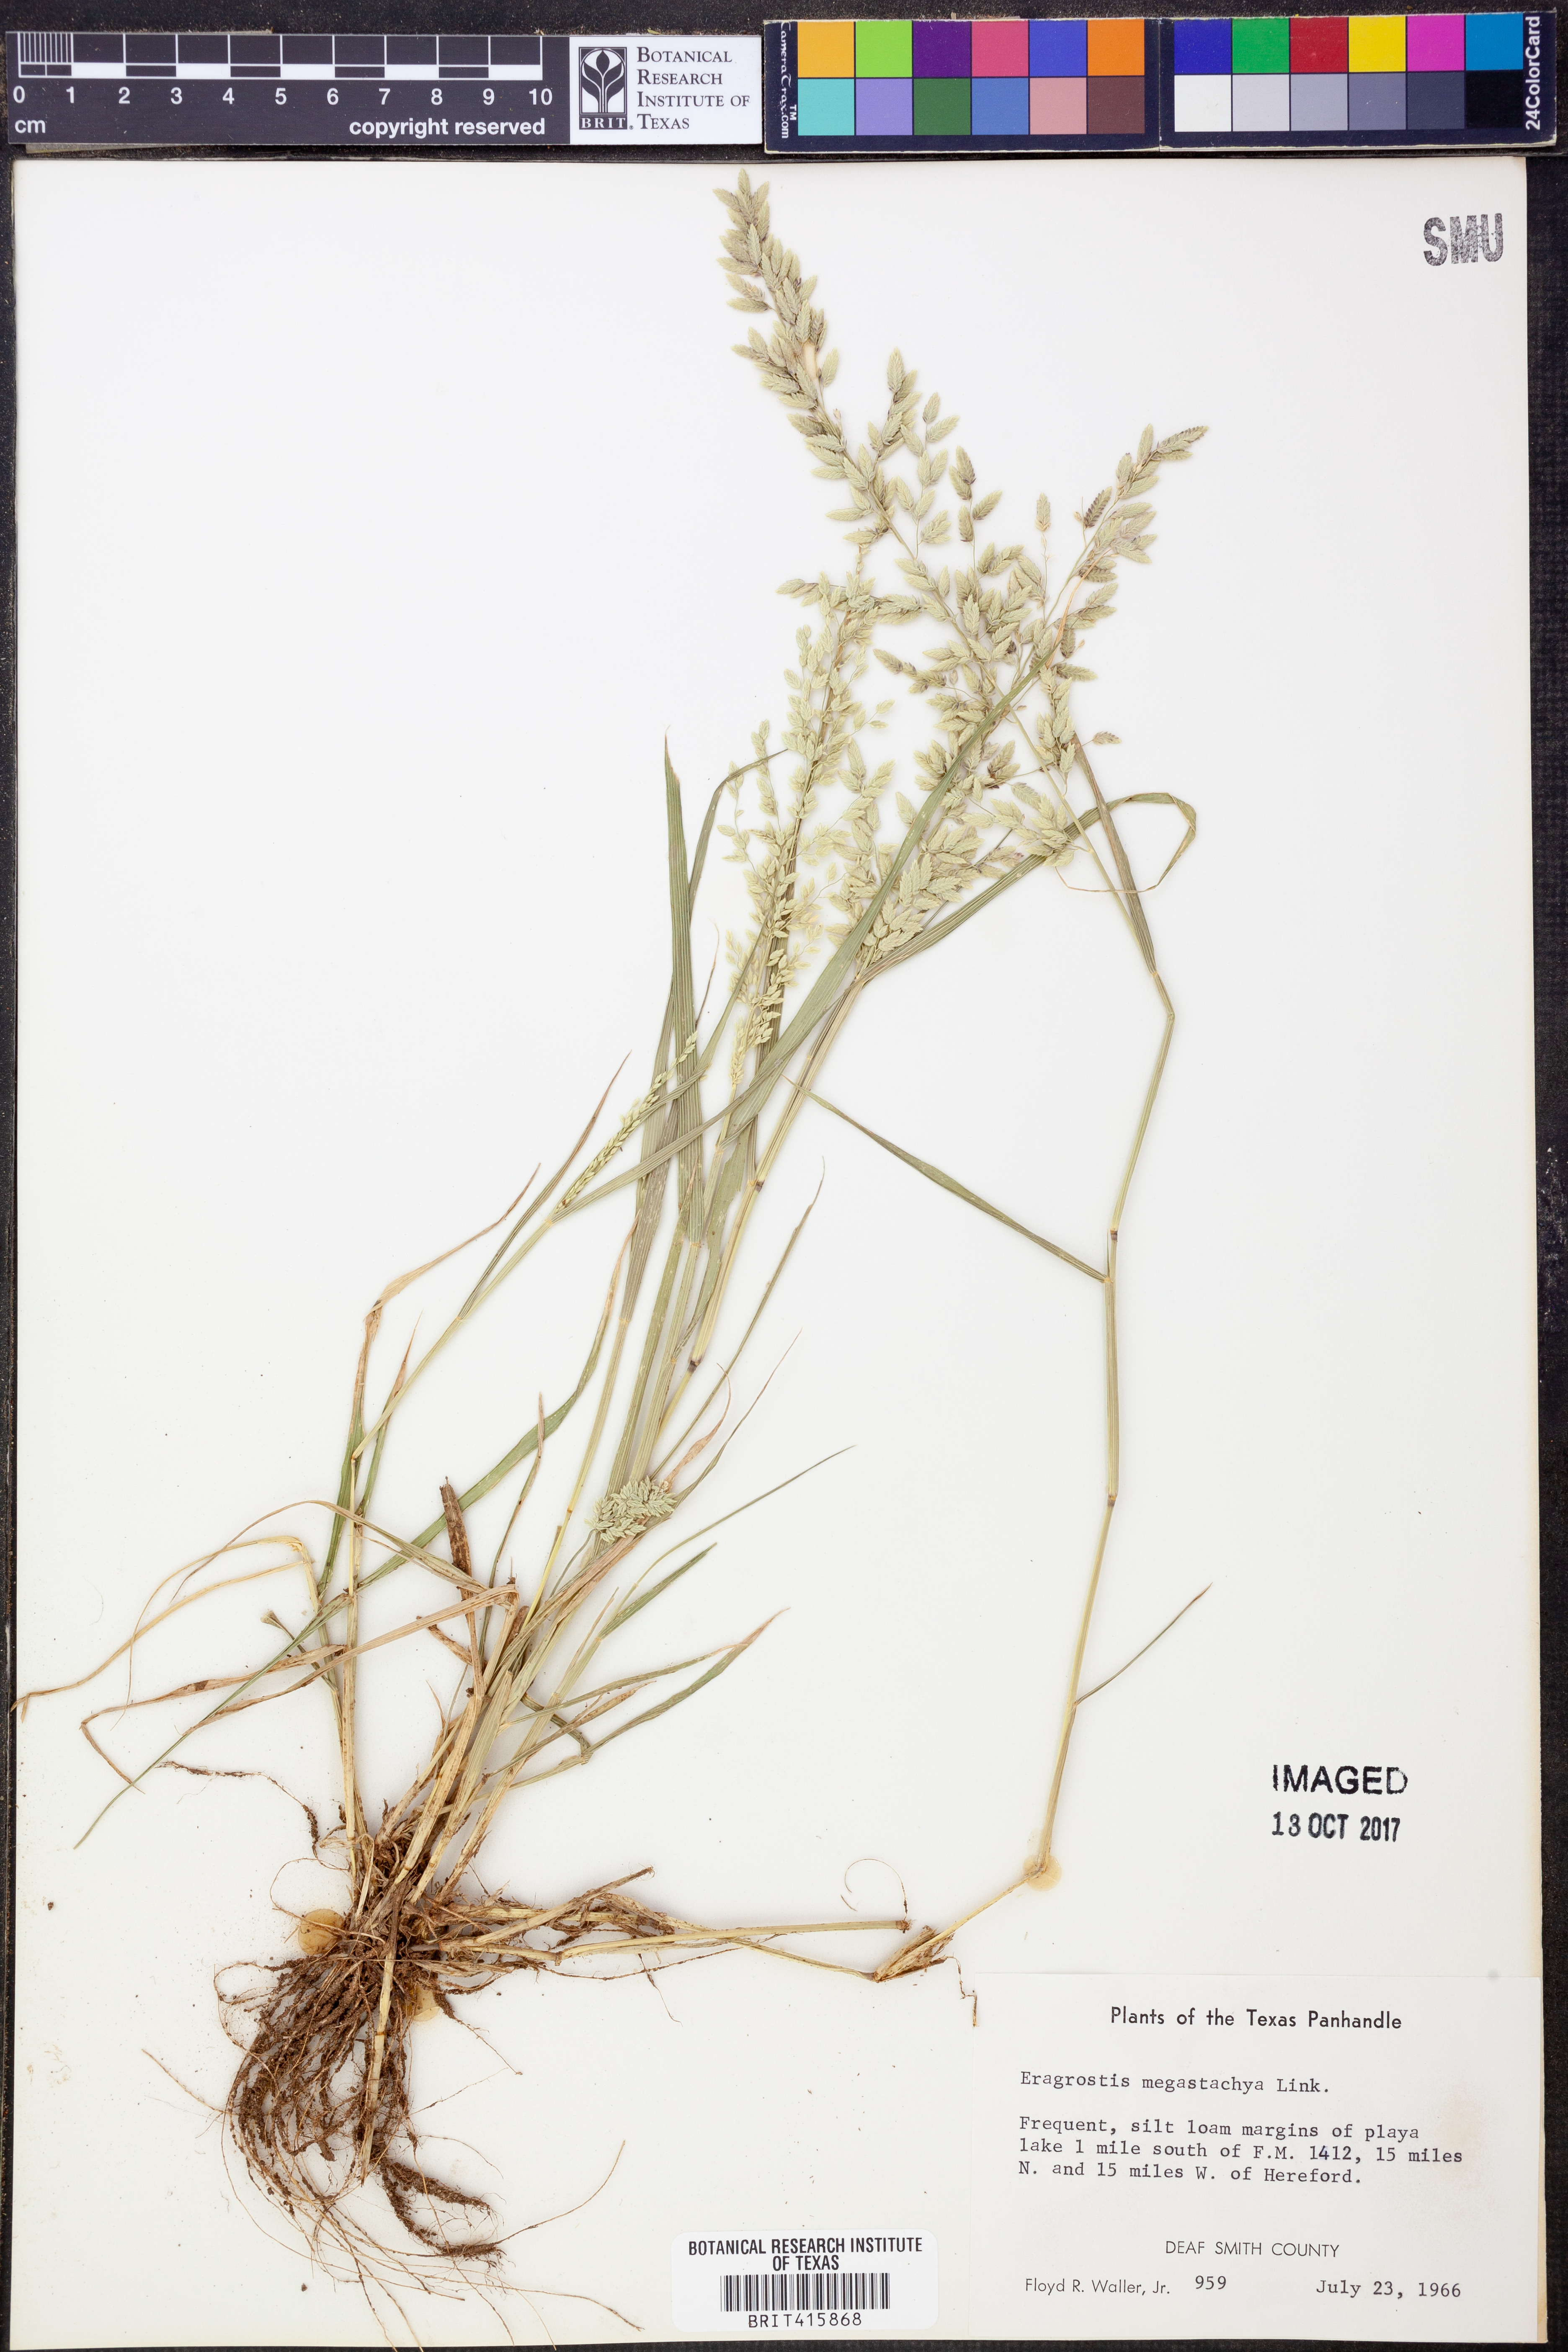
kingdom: Plantae
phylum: Tracheophyta
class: Liliopsida
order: Poales
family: Poaceae
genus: Eragrostis
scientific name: Eragrostis cilianensis
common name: Stinkgrass
